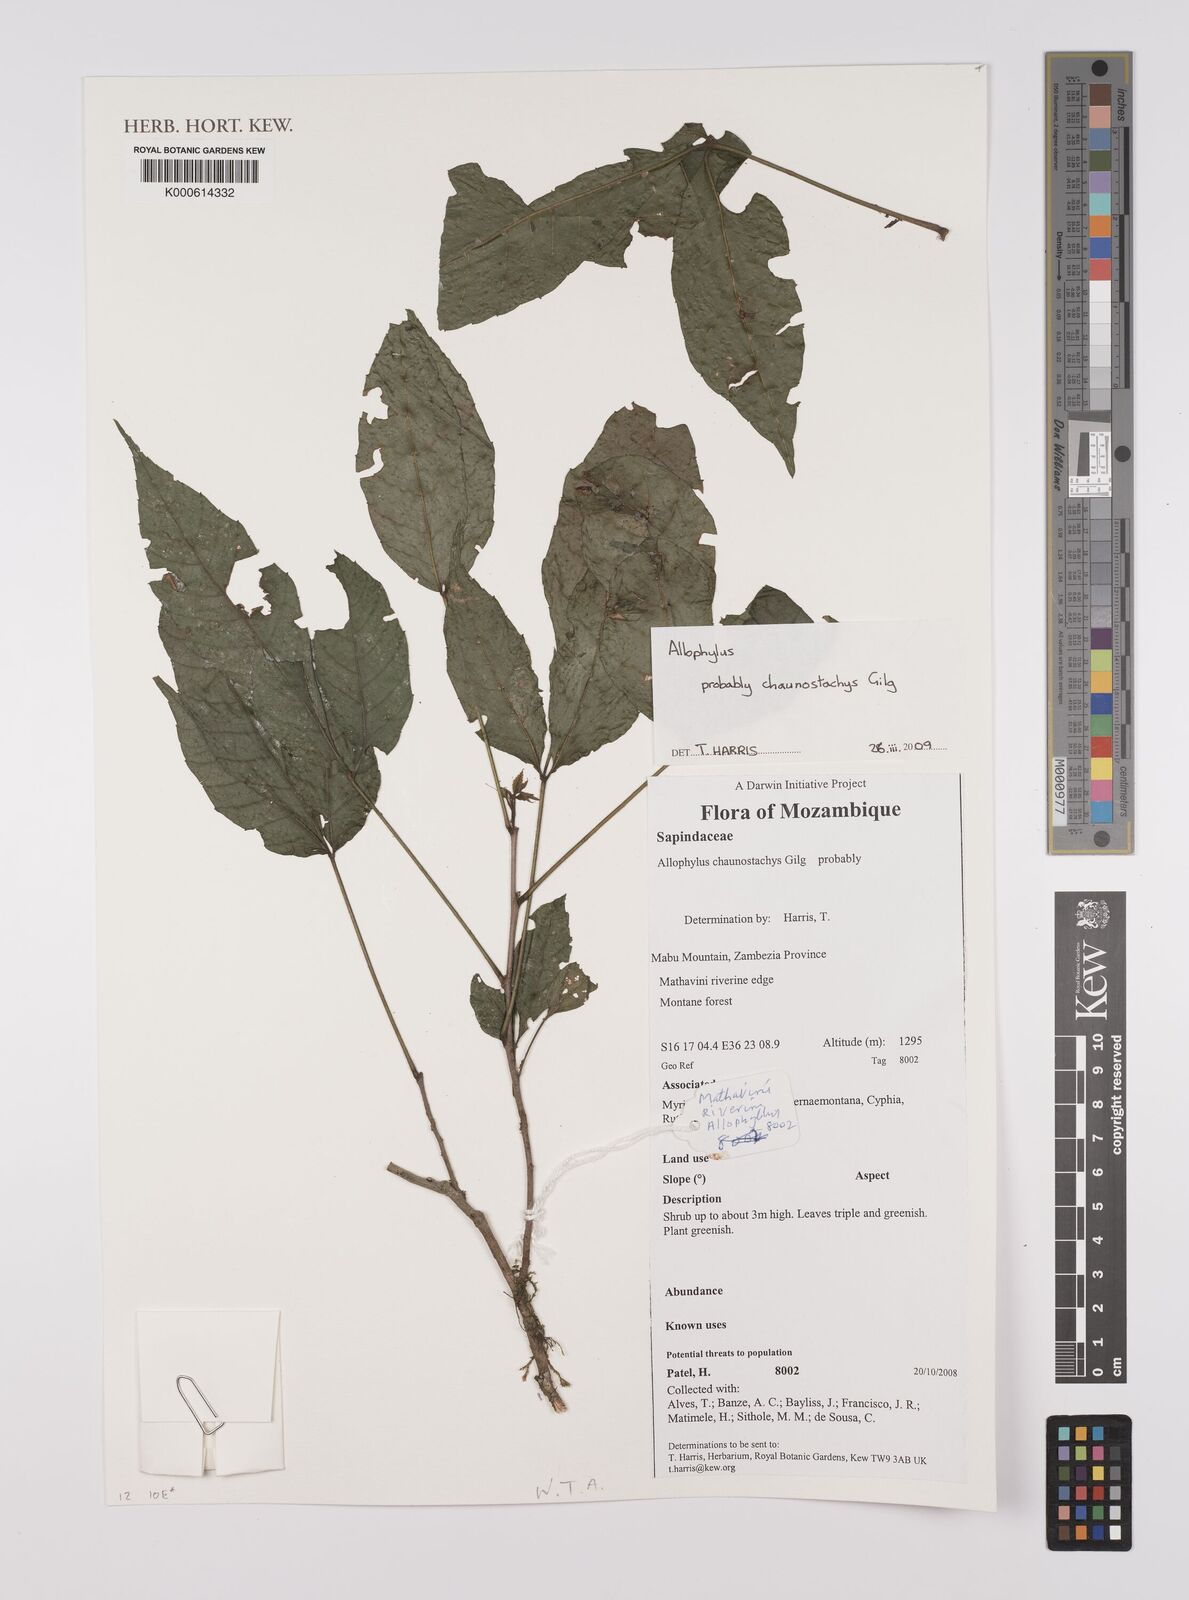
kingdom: Plantae
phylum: Tracheophyta
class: Magnoliopsida
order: Sapindales
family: Sapindaceae
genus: Allophylus
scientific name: Allophylus chaunostachys
